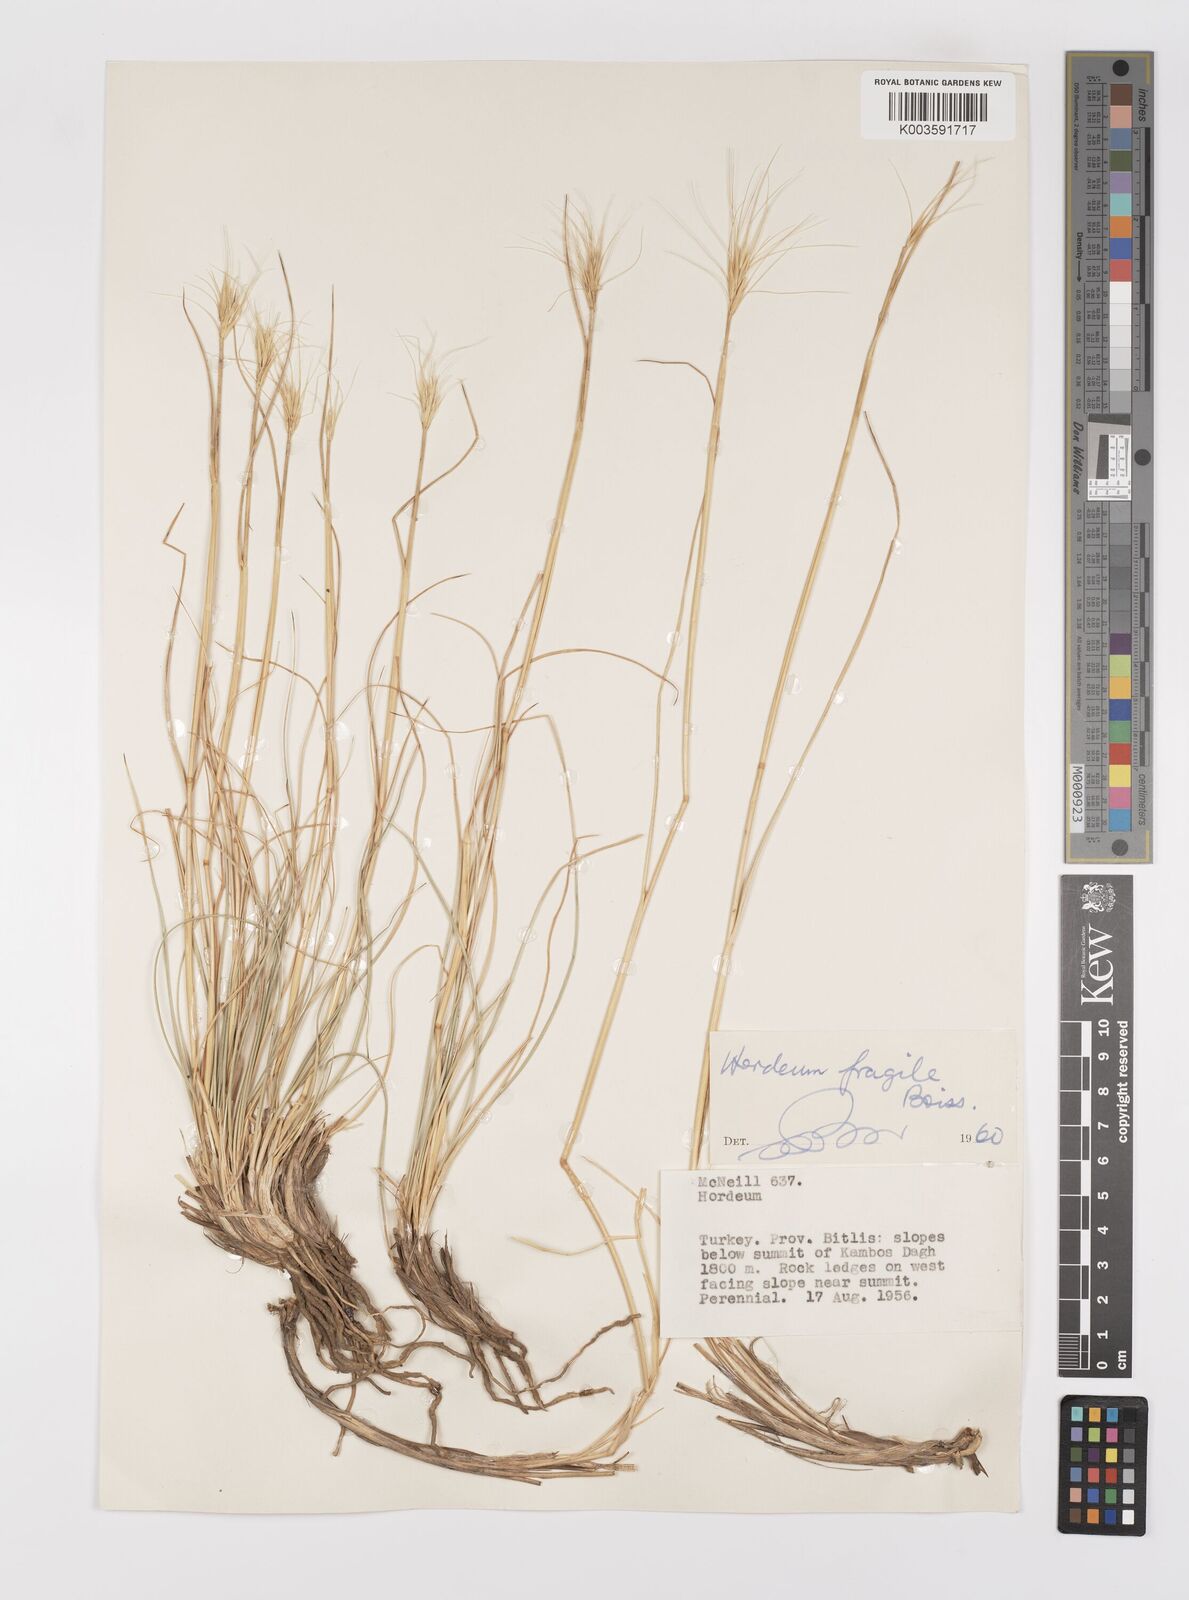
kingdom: Plantae
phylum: Tracheophyta
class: Liliopsida
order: Poales
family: Poaceae
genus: Psathyrostachys
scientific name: Psathyrostachys fragilis
